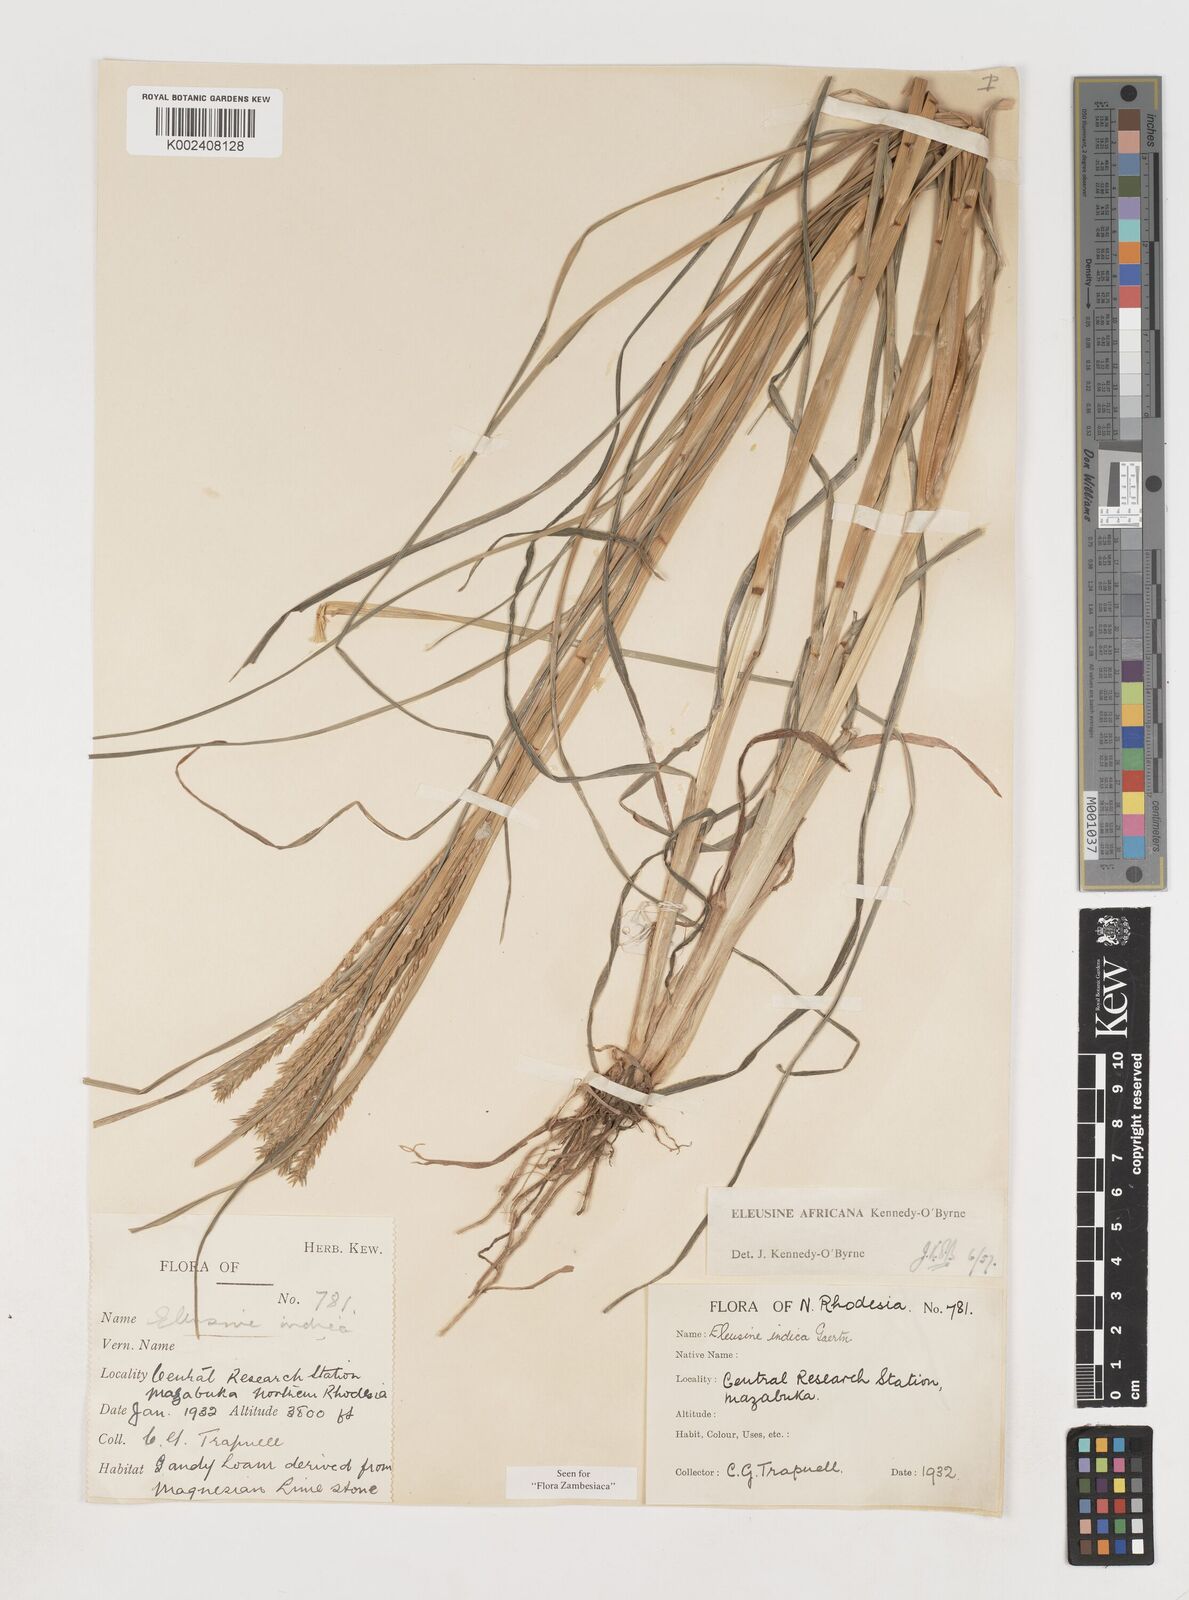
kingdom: Plantae
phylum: Tracheophyta
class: Liliopsida
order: Poales
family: Poaceae
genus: Eleusine
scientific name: Eleusine africana
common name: Wild african finger millet
